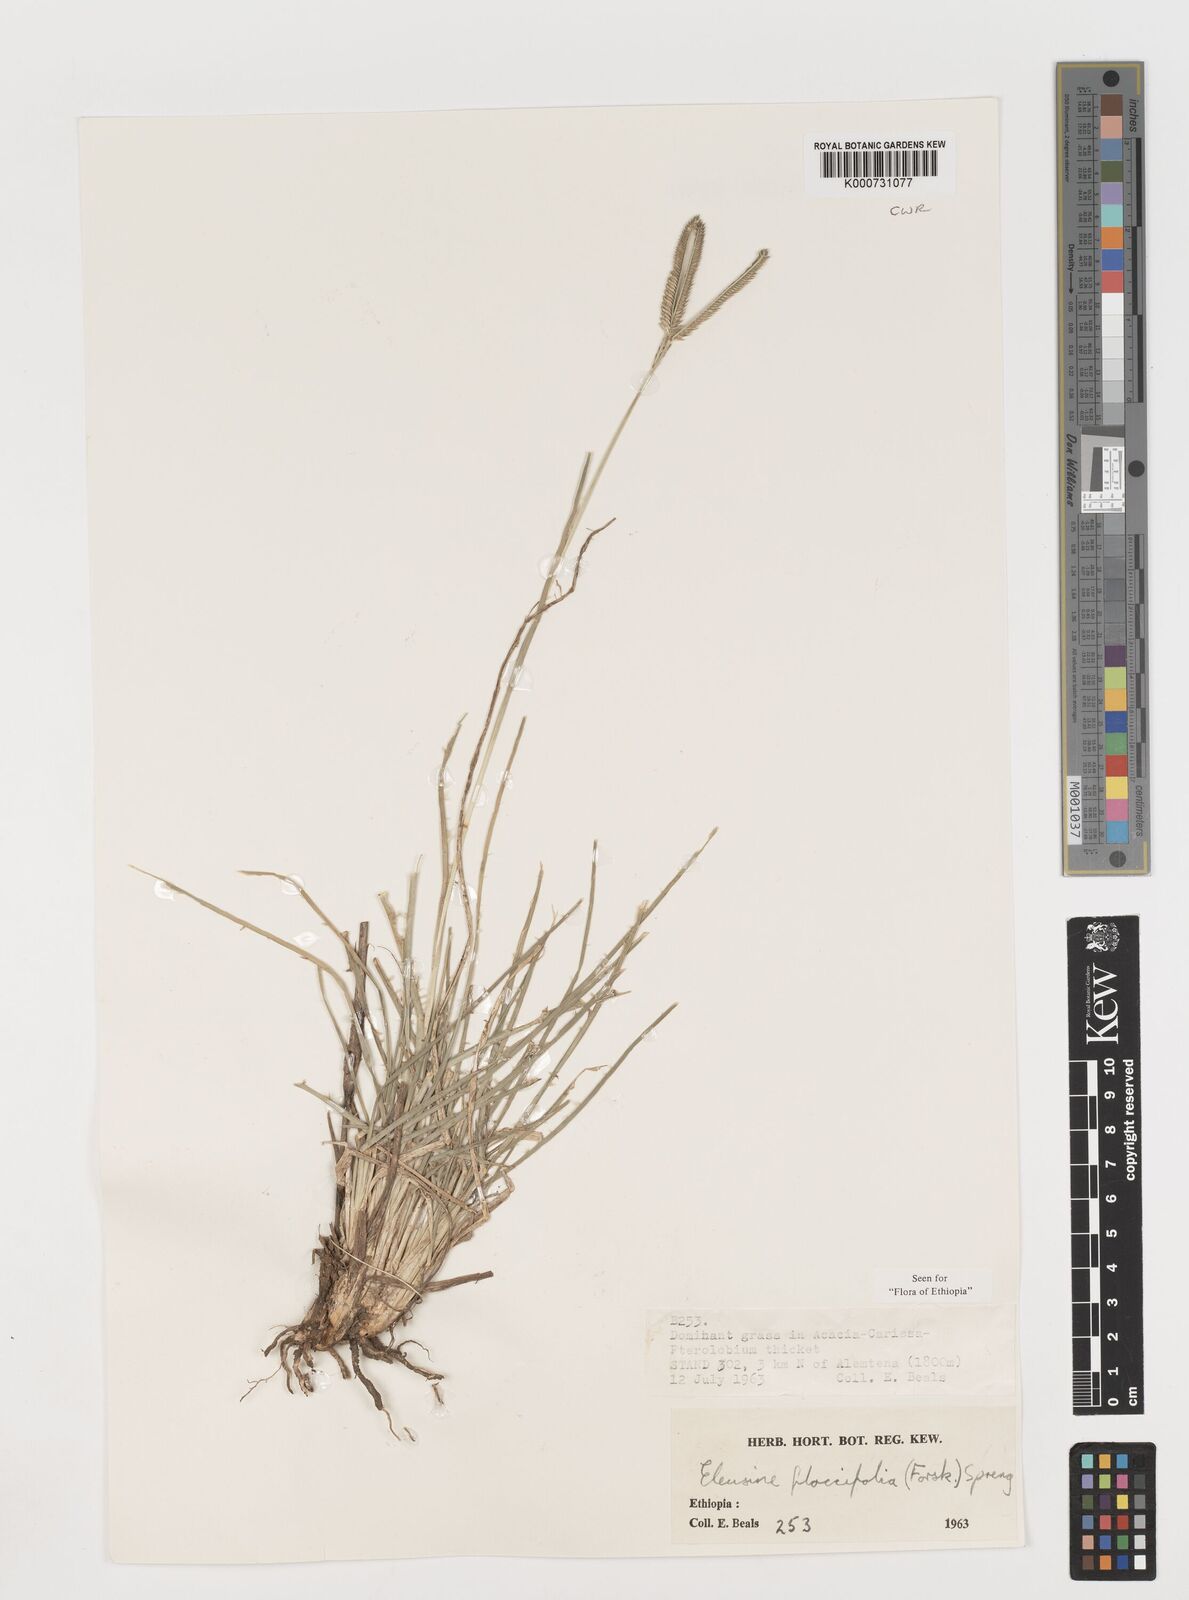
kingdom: Plantae
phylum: Tracheophyta
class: Liliopsida
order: Poales
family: Poaceae
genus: Eleusine
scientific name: Eleusine floccifolia
